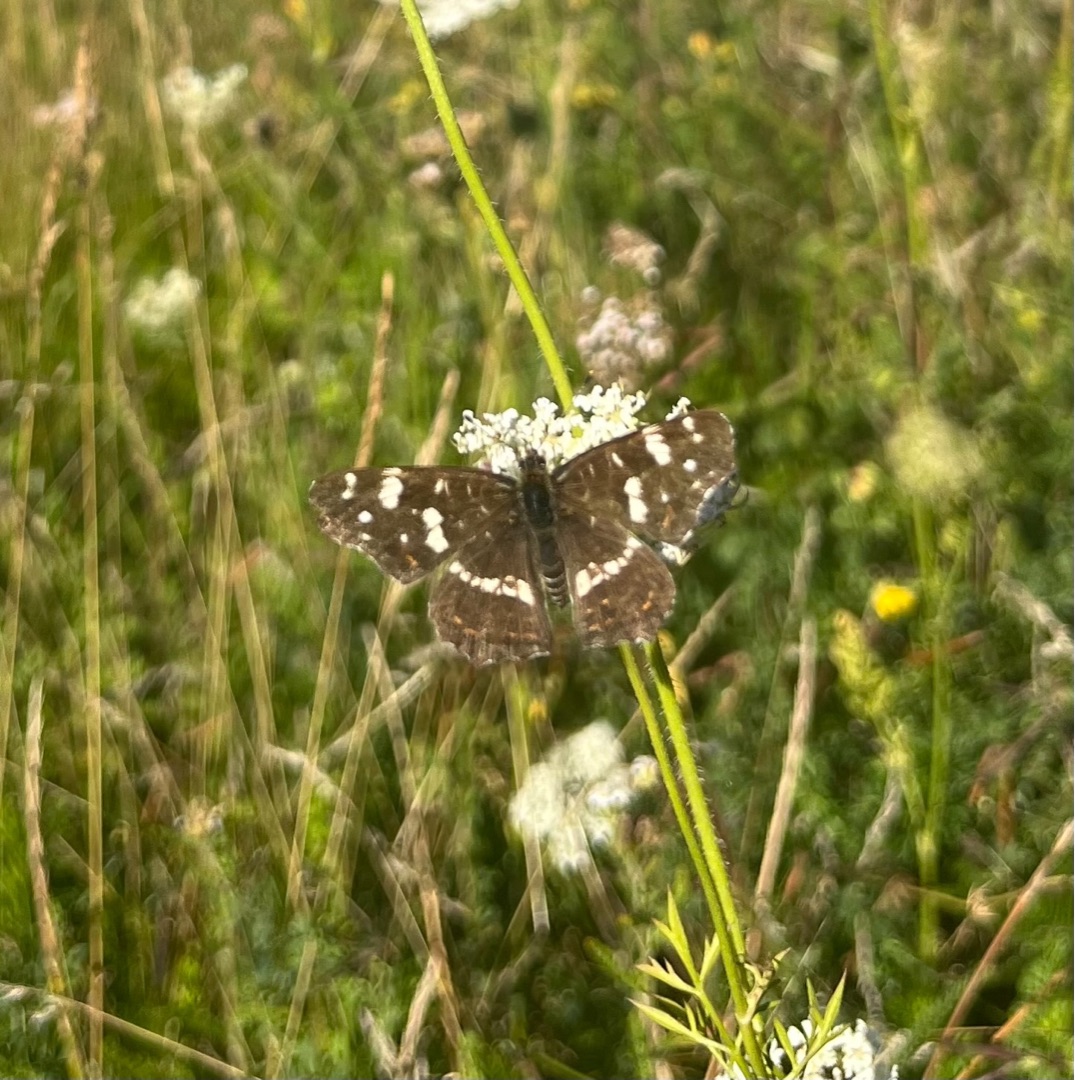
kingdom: Animalia
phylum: Arthropoda
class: Insecta
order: Lepidoptera
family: Nymphalidae
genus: Araschnia
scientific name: Araschnia levana
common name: Nældesommerfugl
